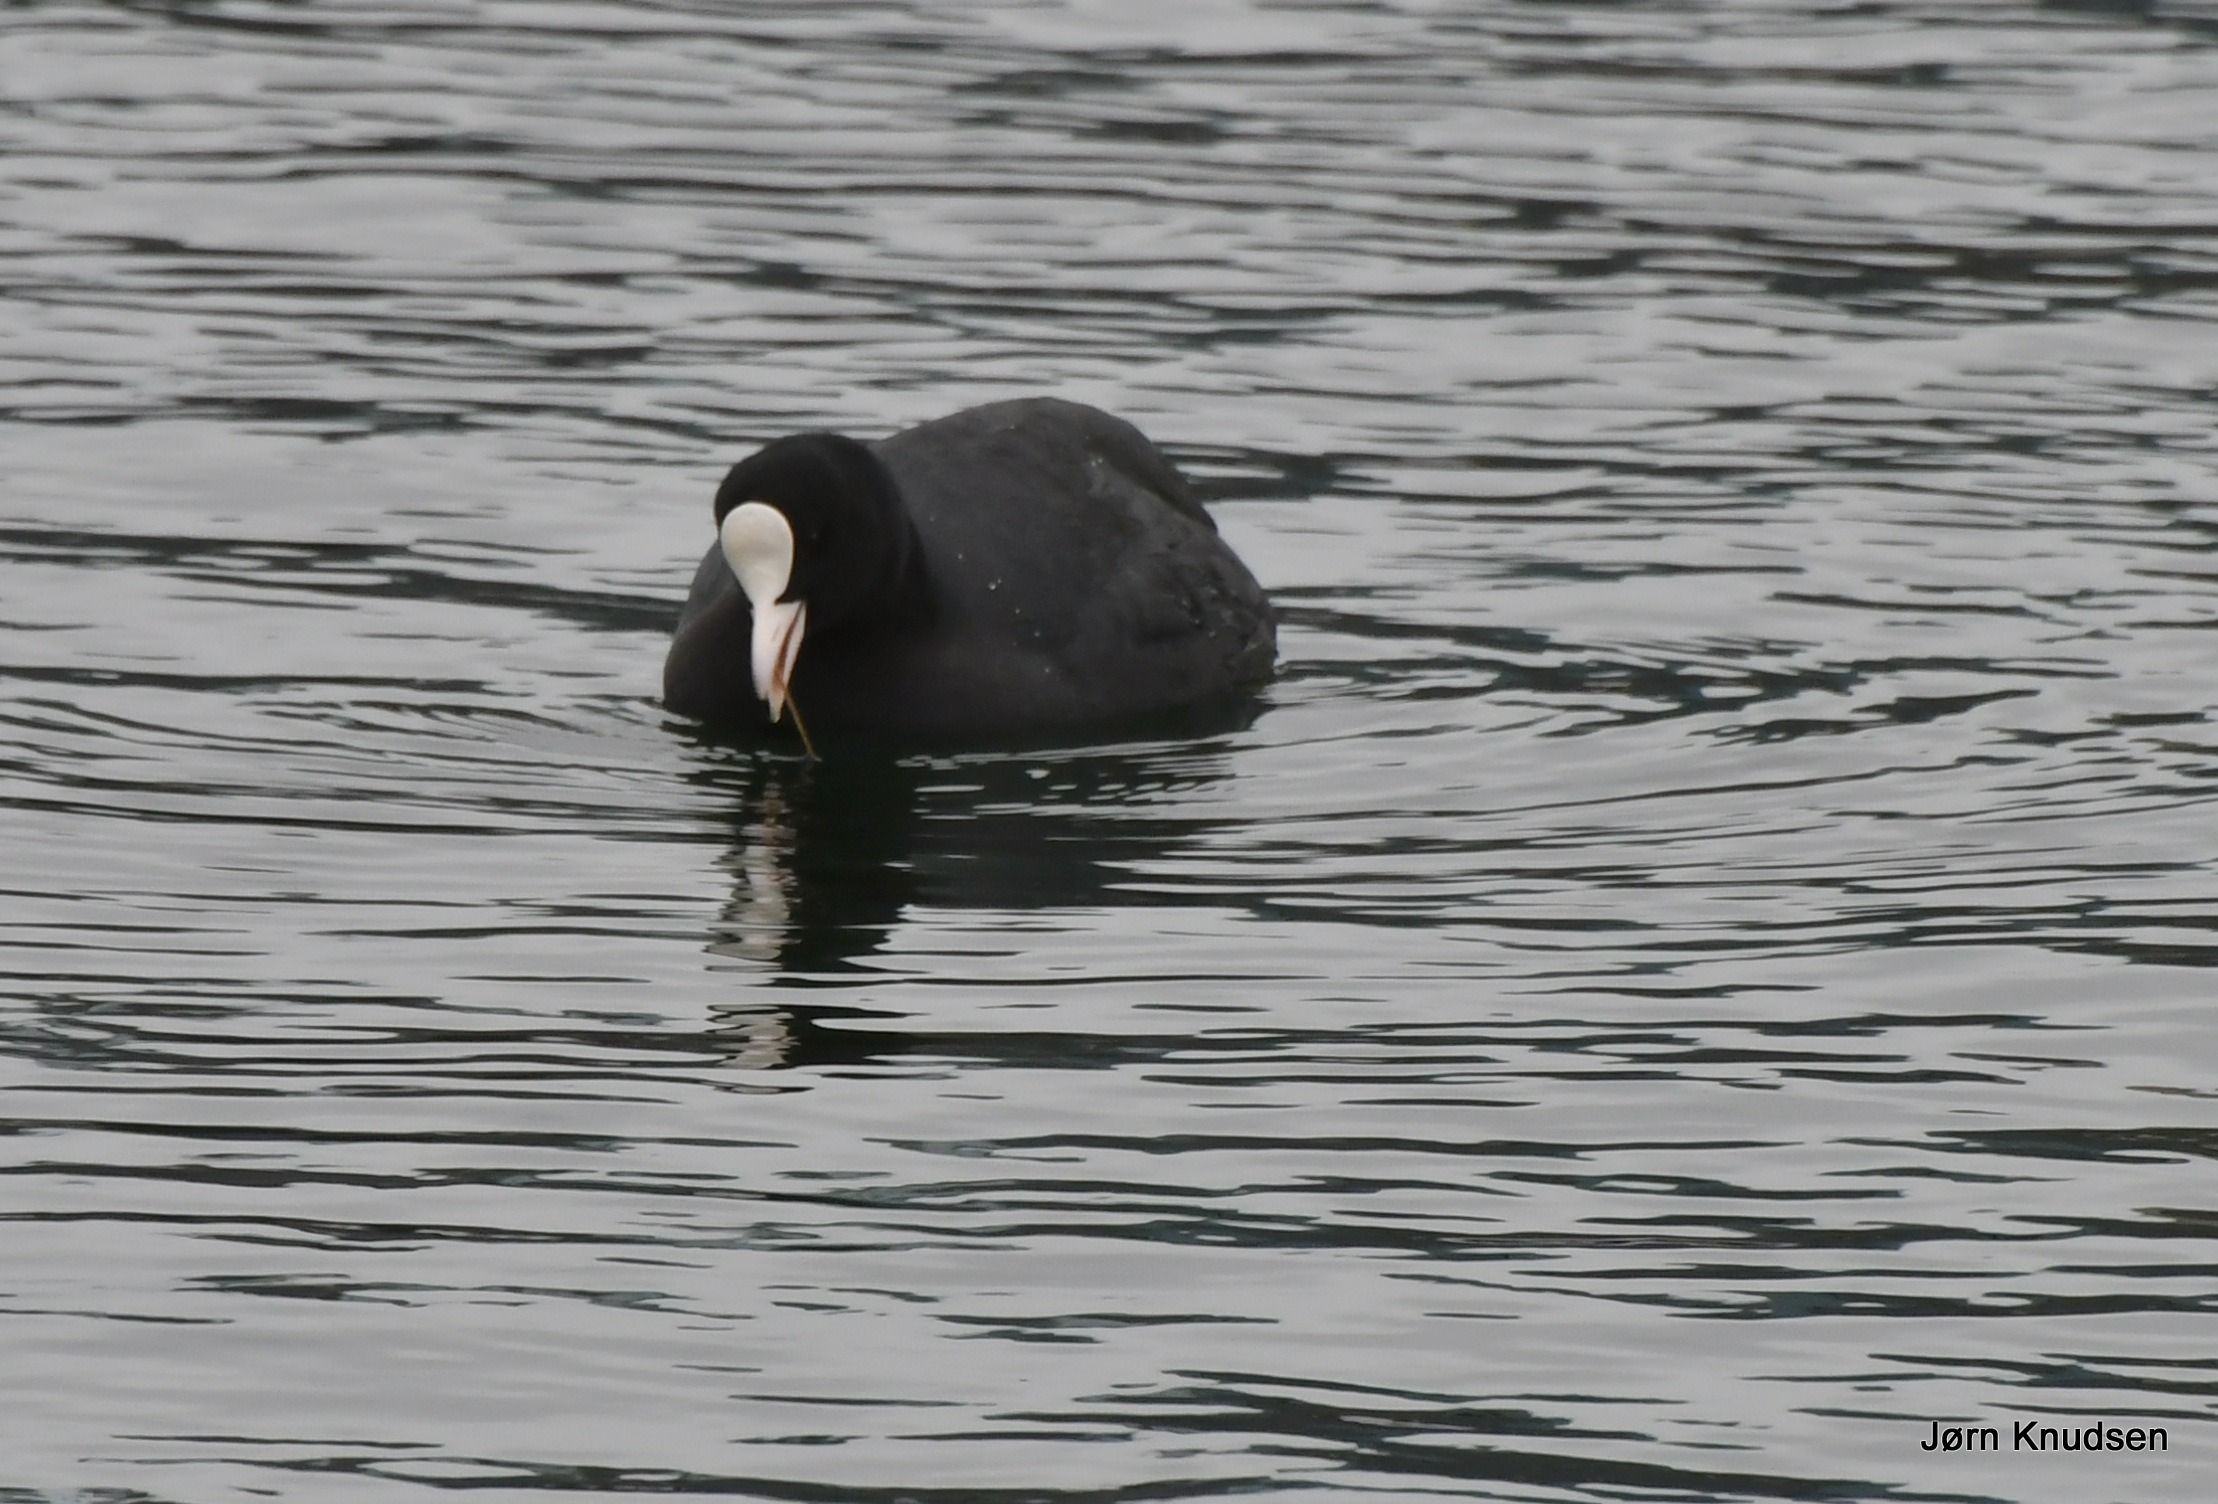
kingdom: Animalia
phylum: Chordata
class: Aves
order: Gruiformes
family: Rallidae
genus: Fulica
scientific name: Fulica atra
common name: Blishøne
